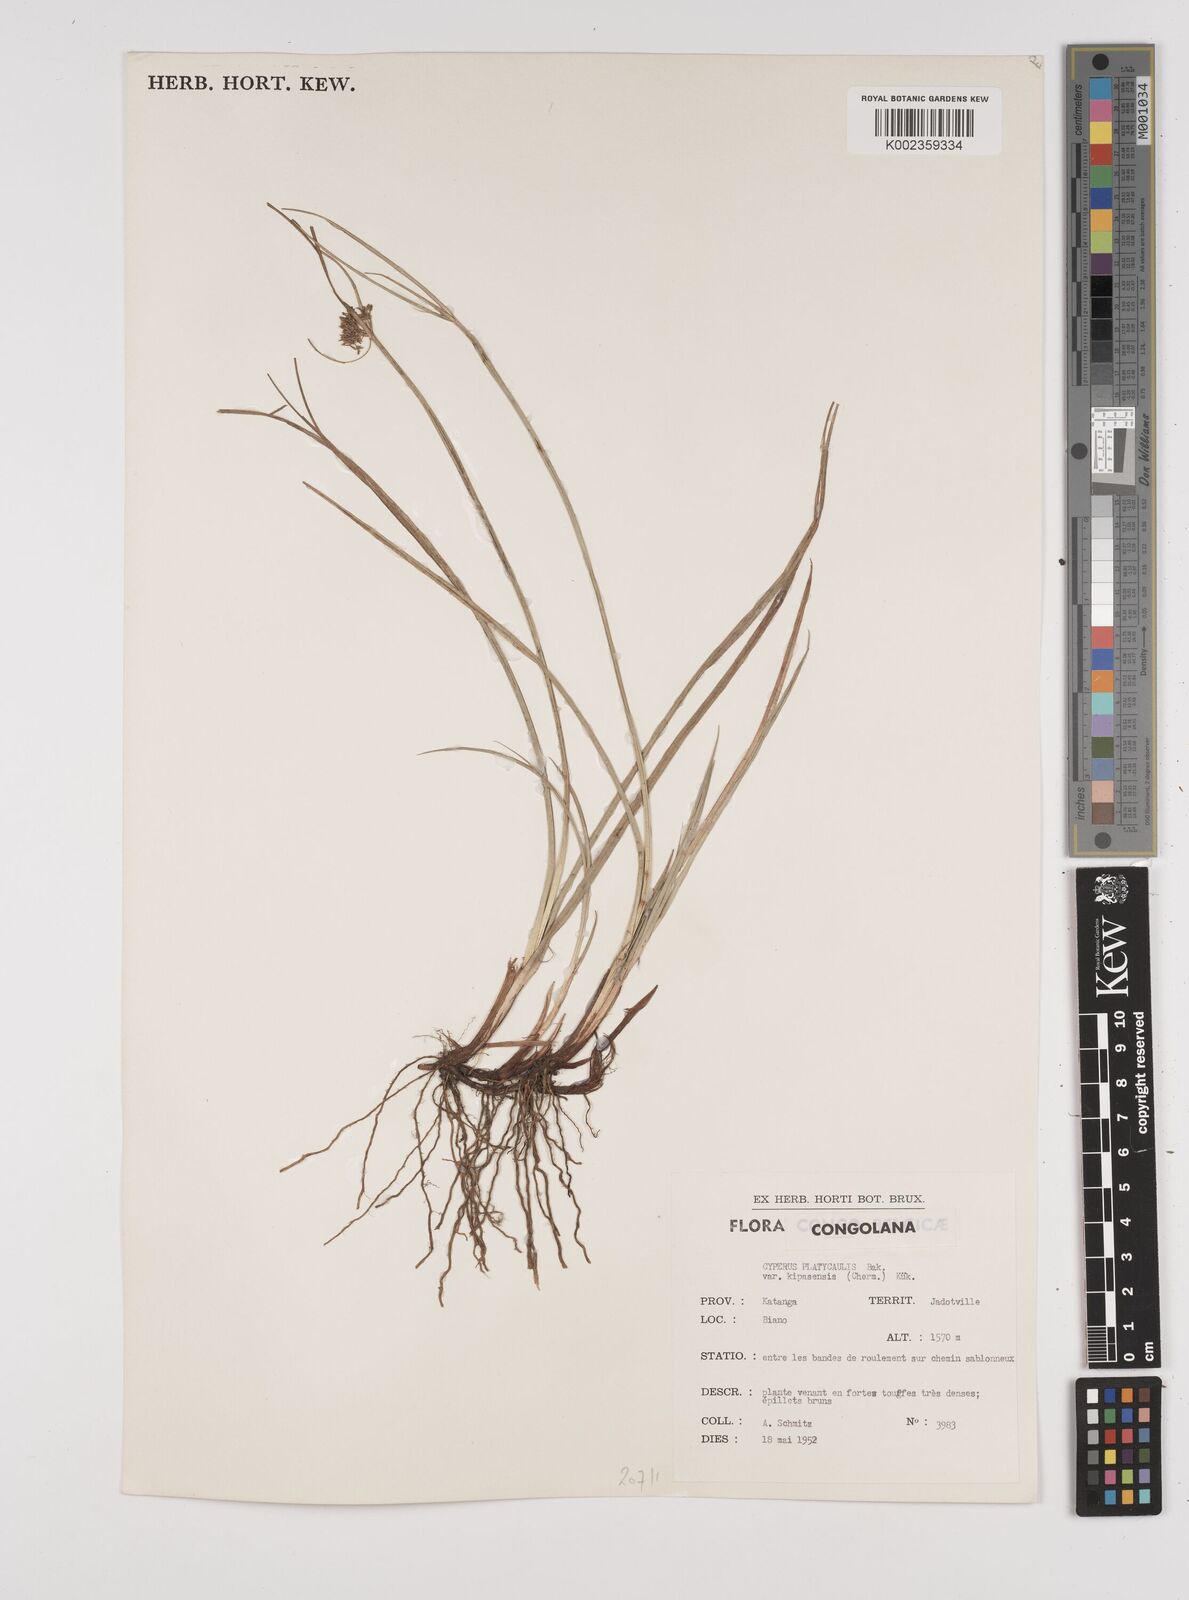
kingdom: Plantae
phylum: Tracheophyta
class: Liliopsida
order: Poales
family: Cyperaceae
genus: Cyperus
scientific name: Cyperus kipasensis
